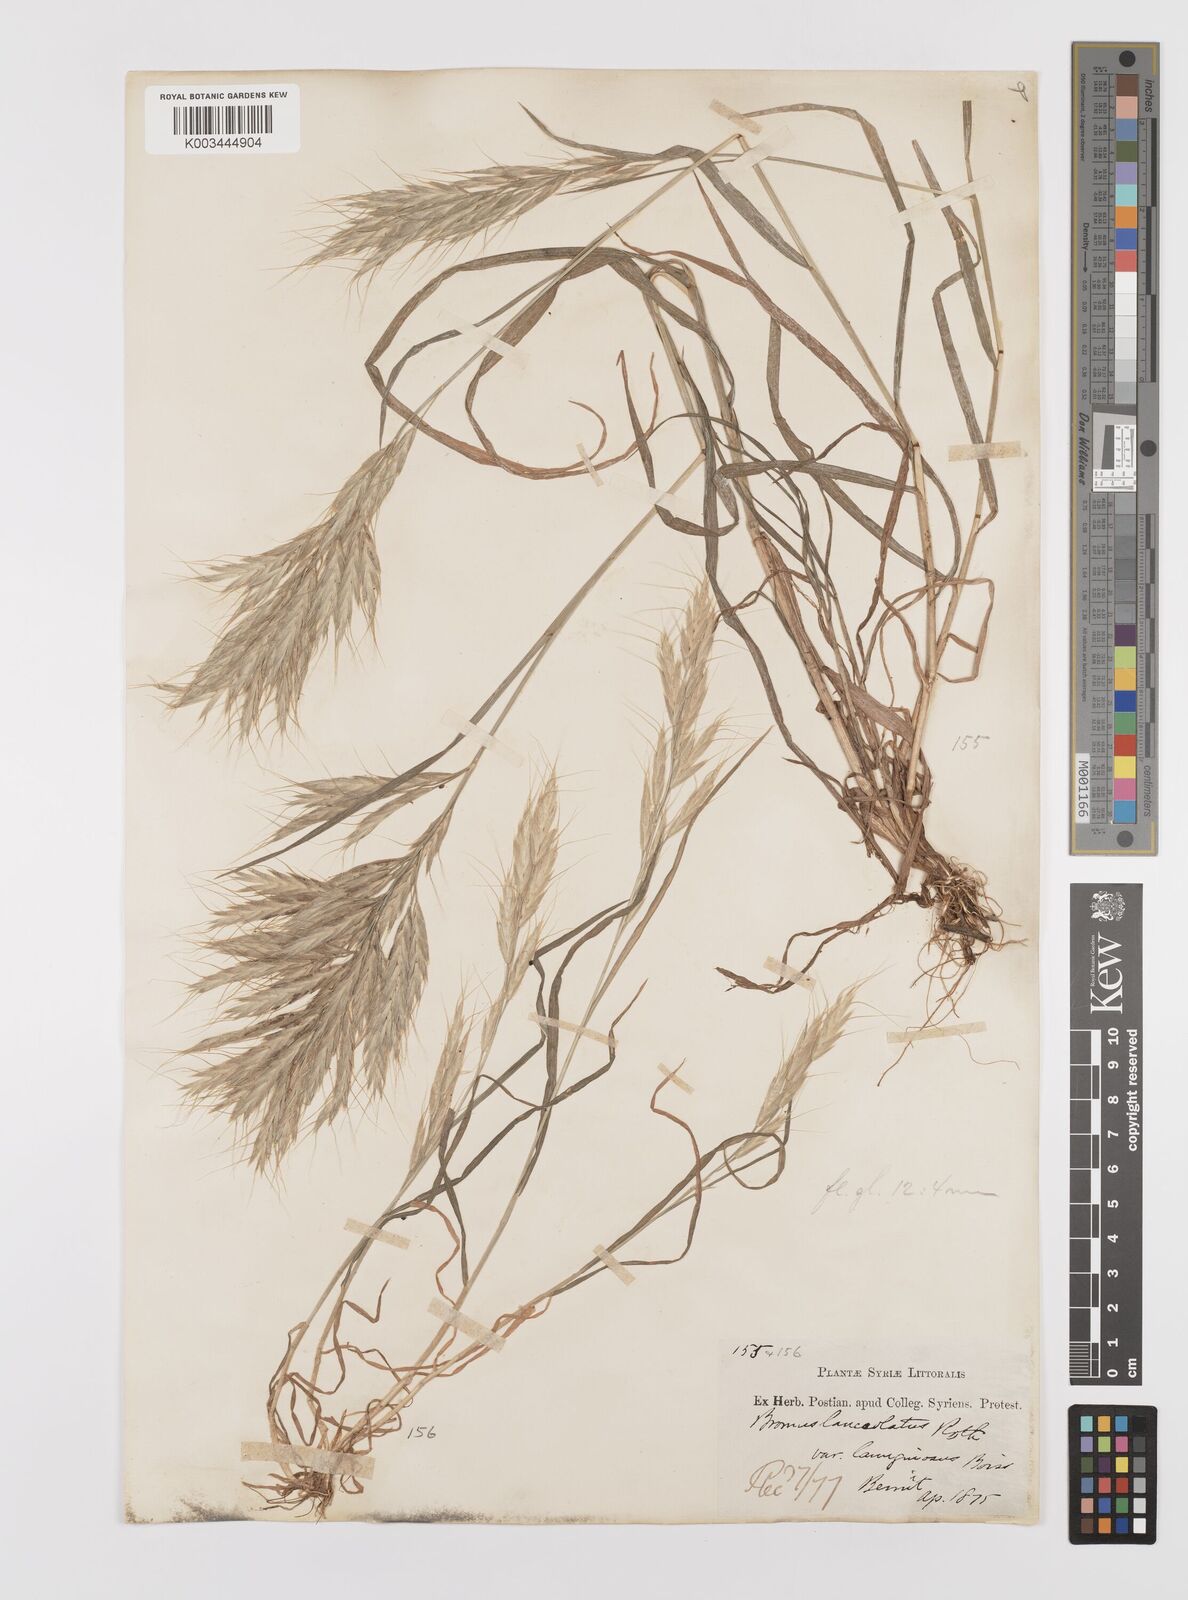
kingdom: Plantae
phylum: Tracheophyta
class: Liliopsida
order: Poales
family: Poaceae
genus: Bromus
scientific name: Bromus lanceolatus
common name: Mediterranean brome
